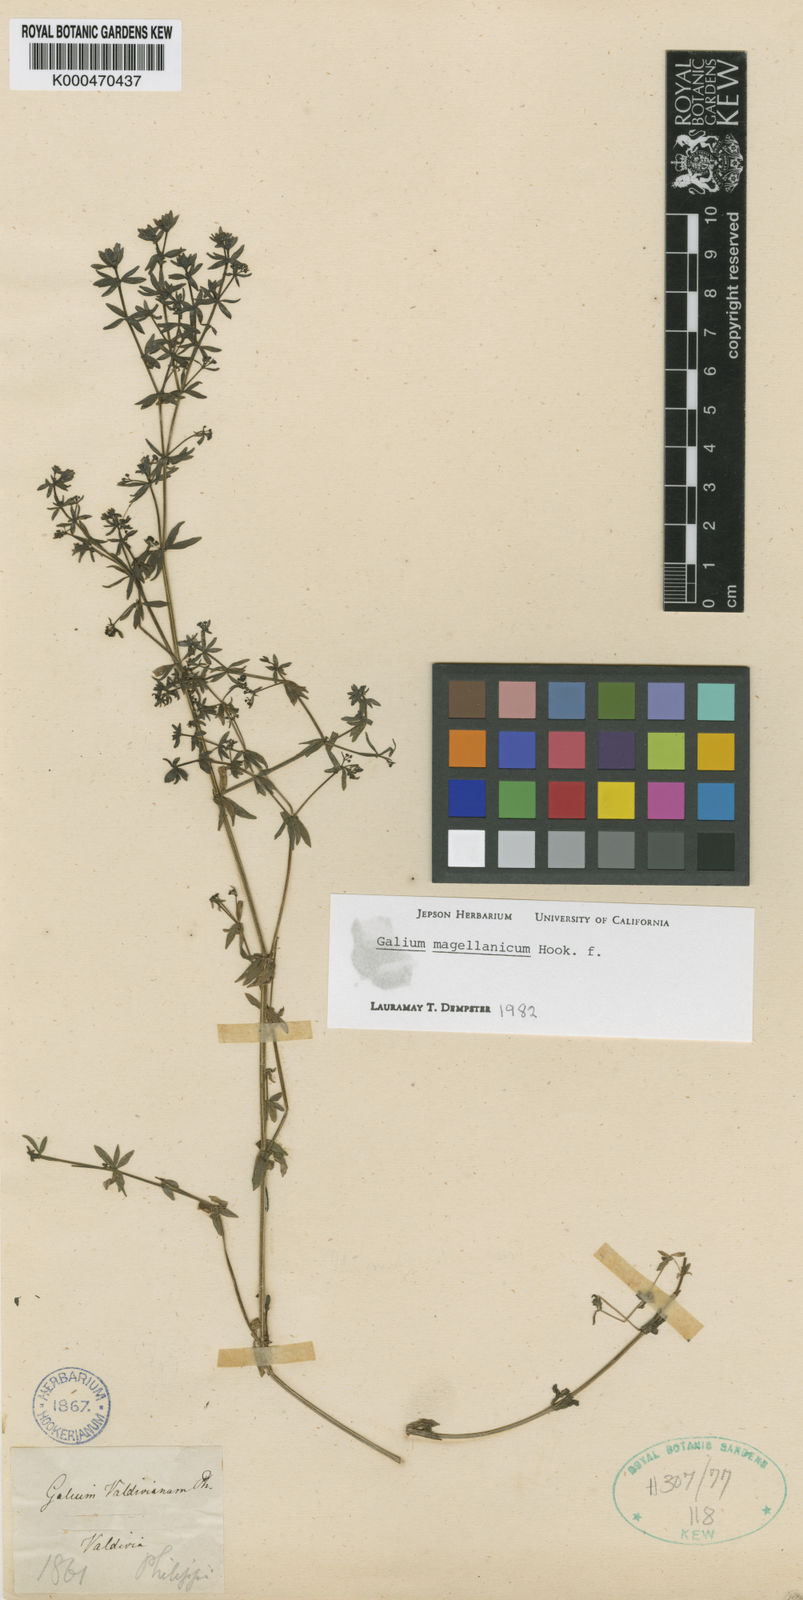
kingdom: Plantae
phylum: Tracheophyta
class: Magnoliopsida
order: Gentianales
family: Rubiaceae
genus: Galium
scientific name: Galium magellanicum
